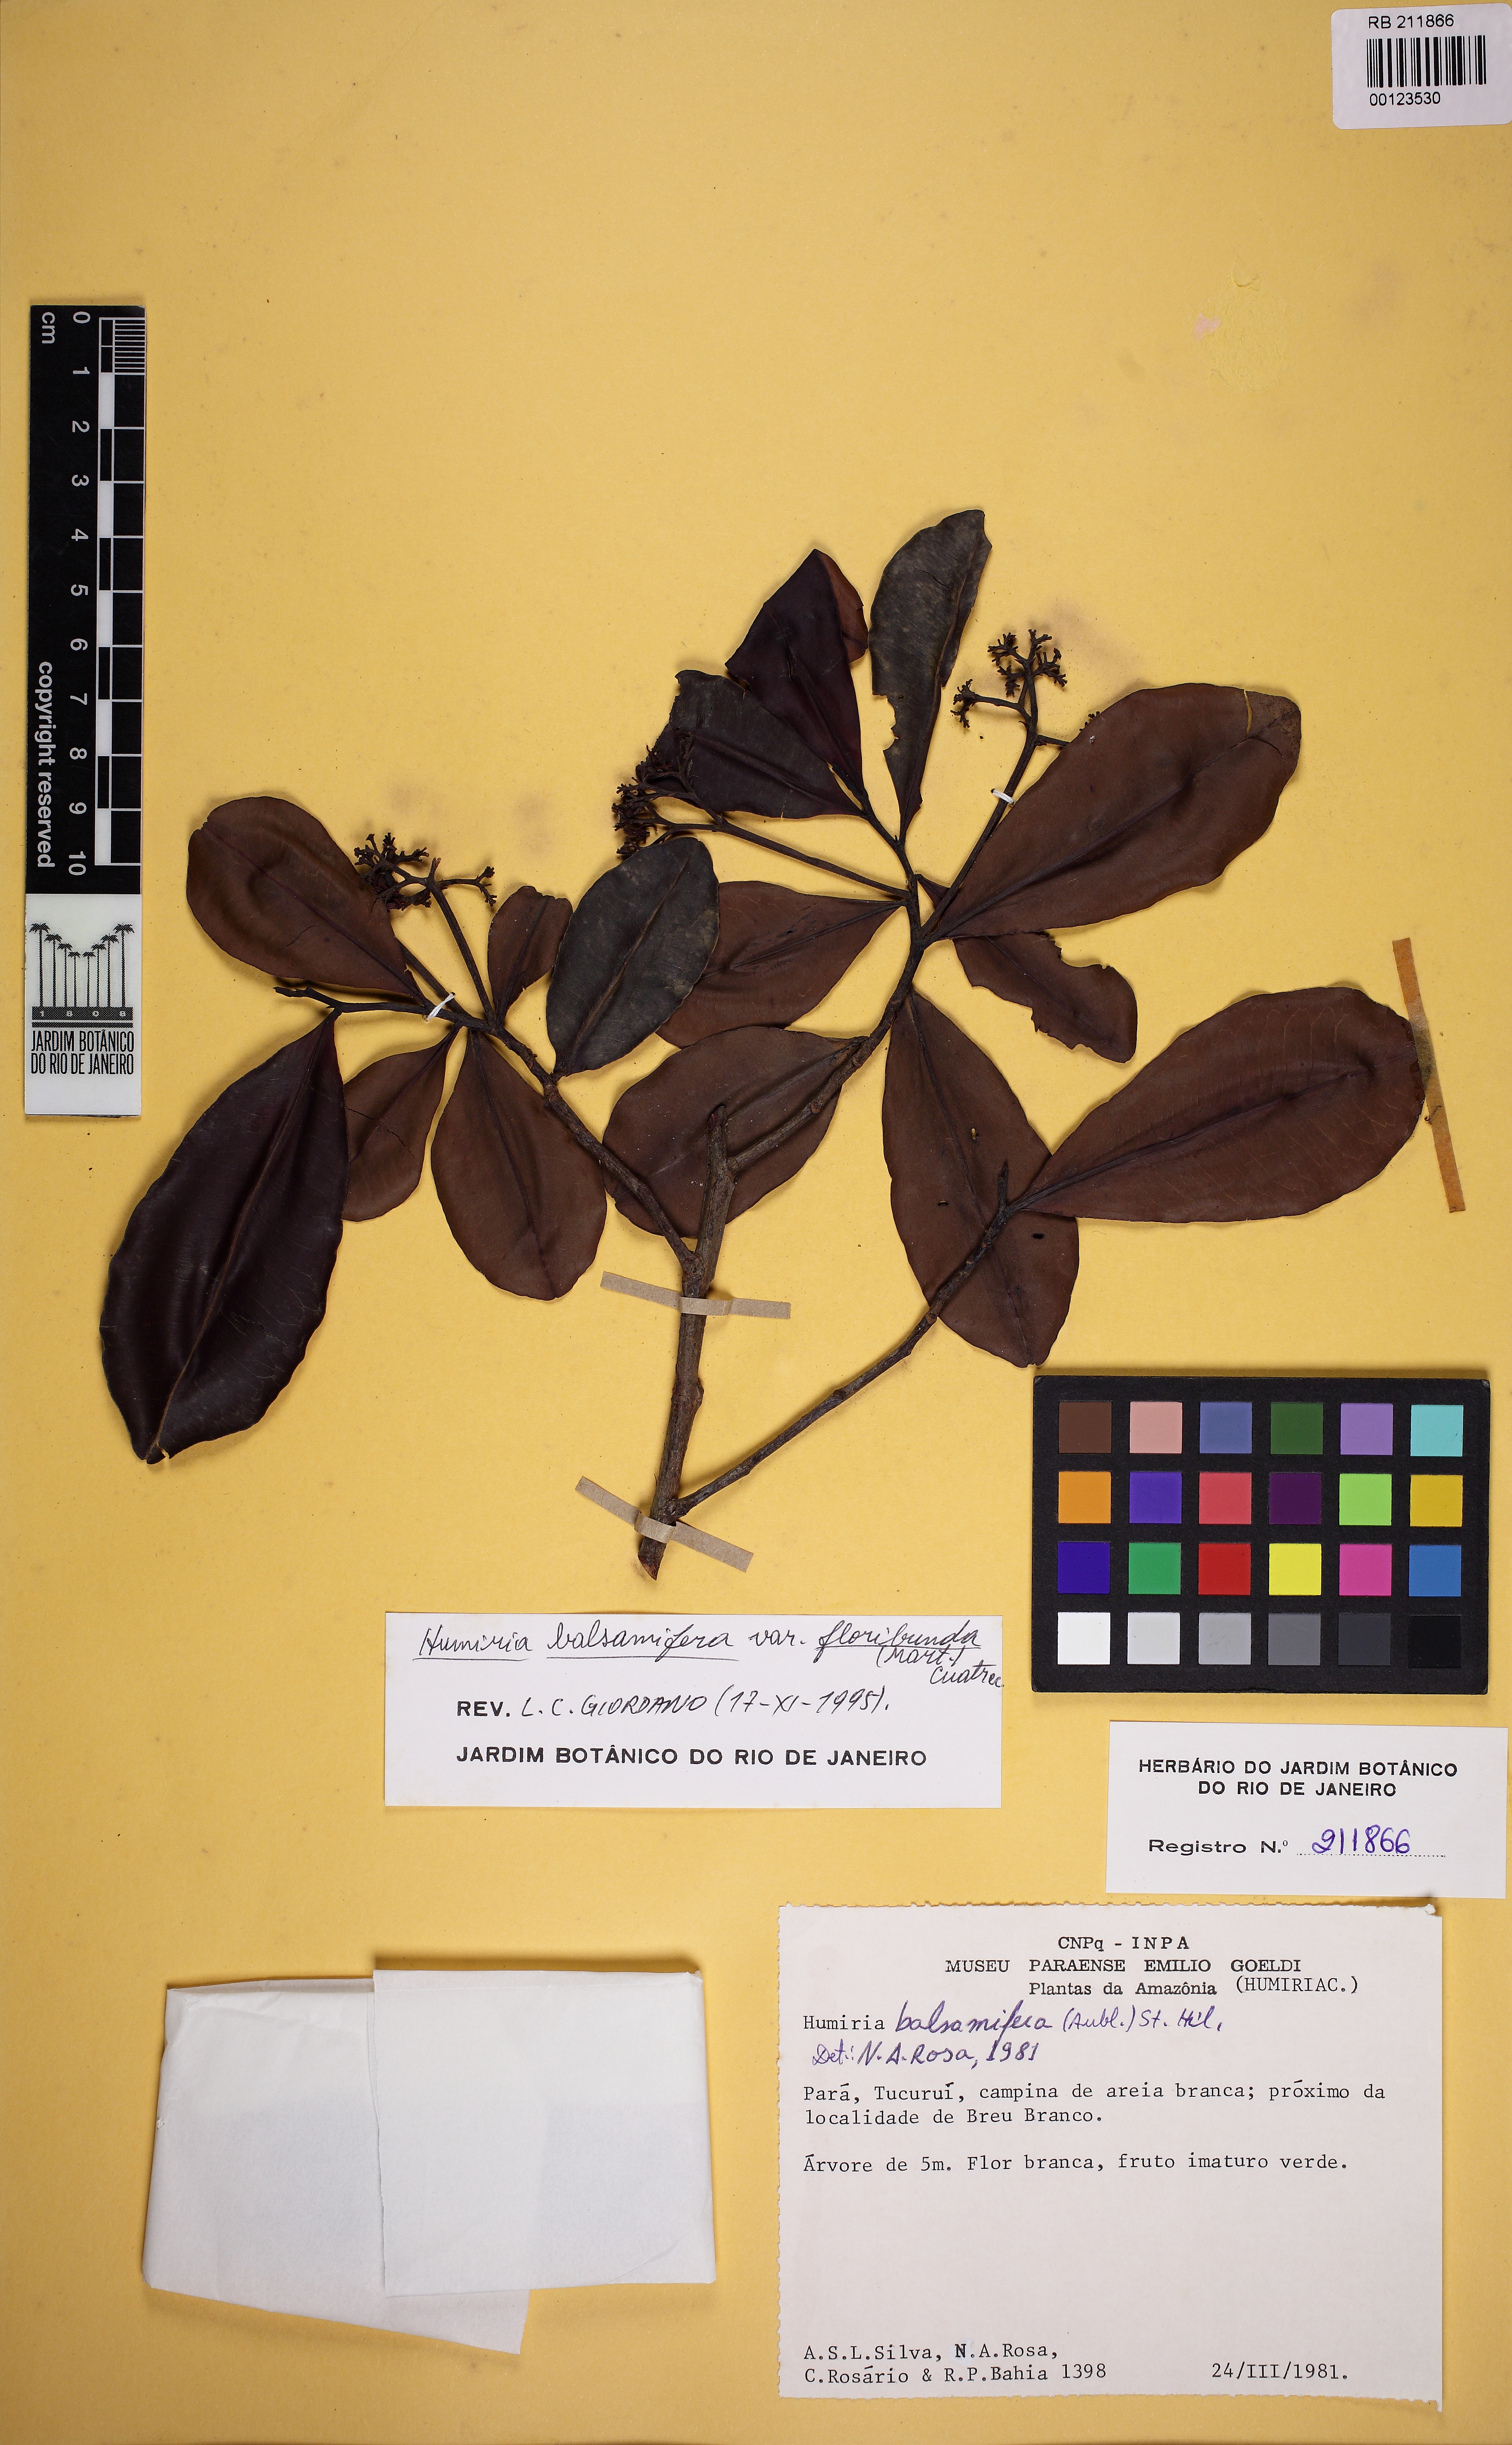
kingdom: Plantae
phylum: Tracheophyta
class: Magnoliopsida
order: Malpighiales
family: Humiriaceae
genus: Humiria
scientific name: Humiria balsamifera
